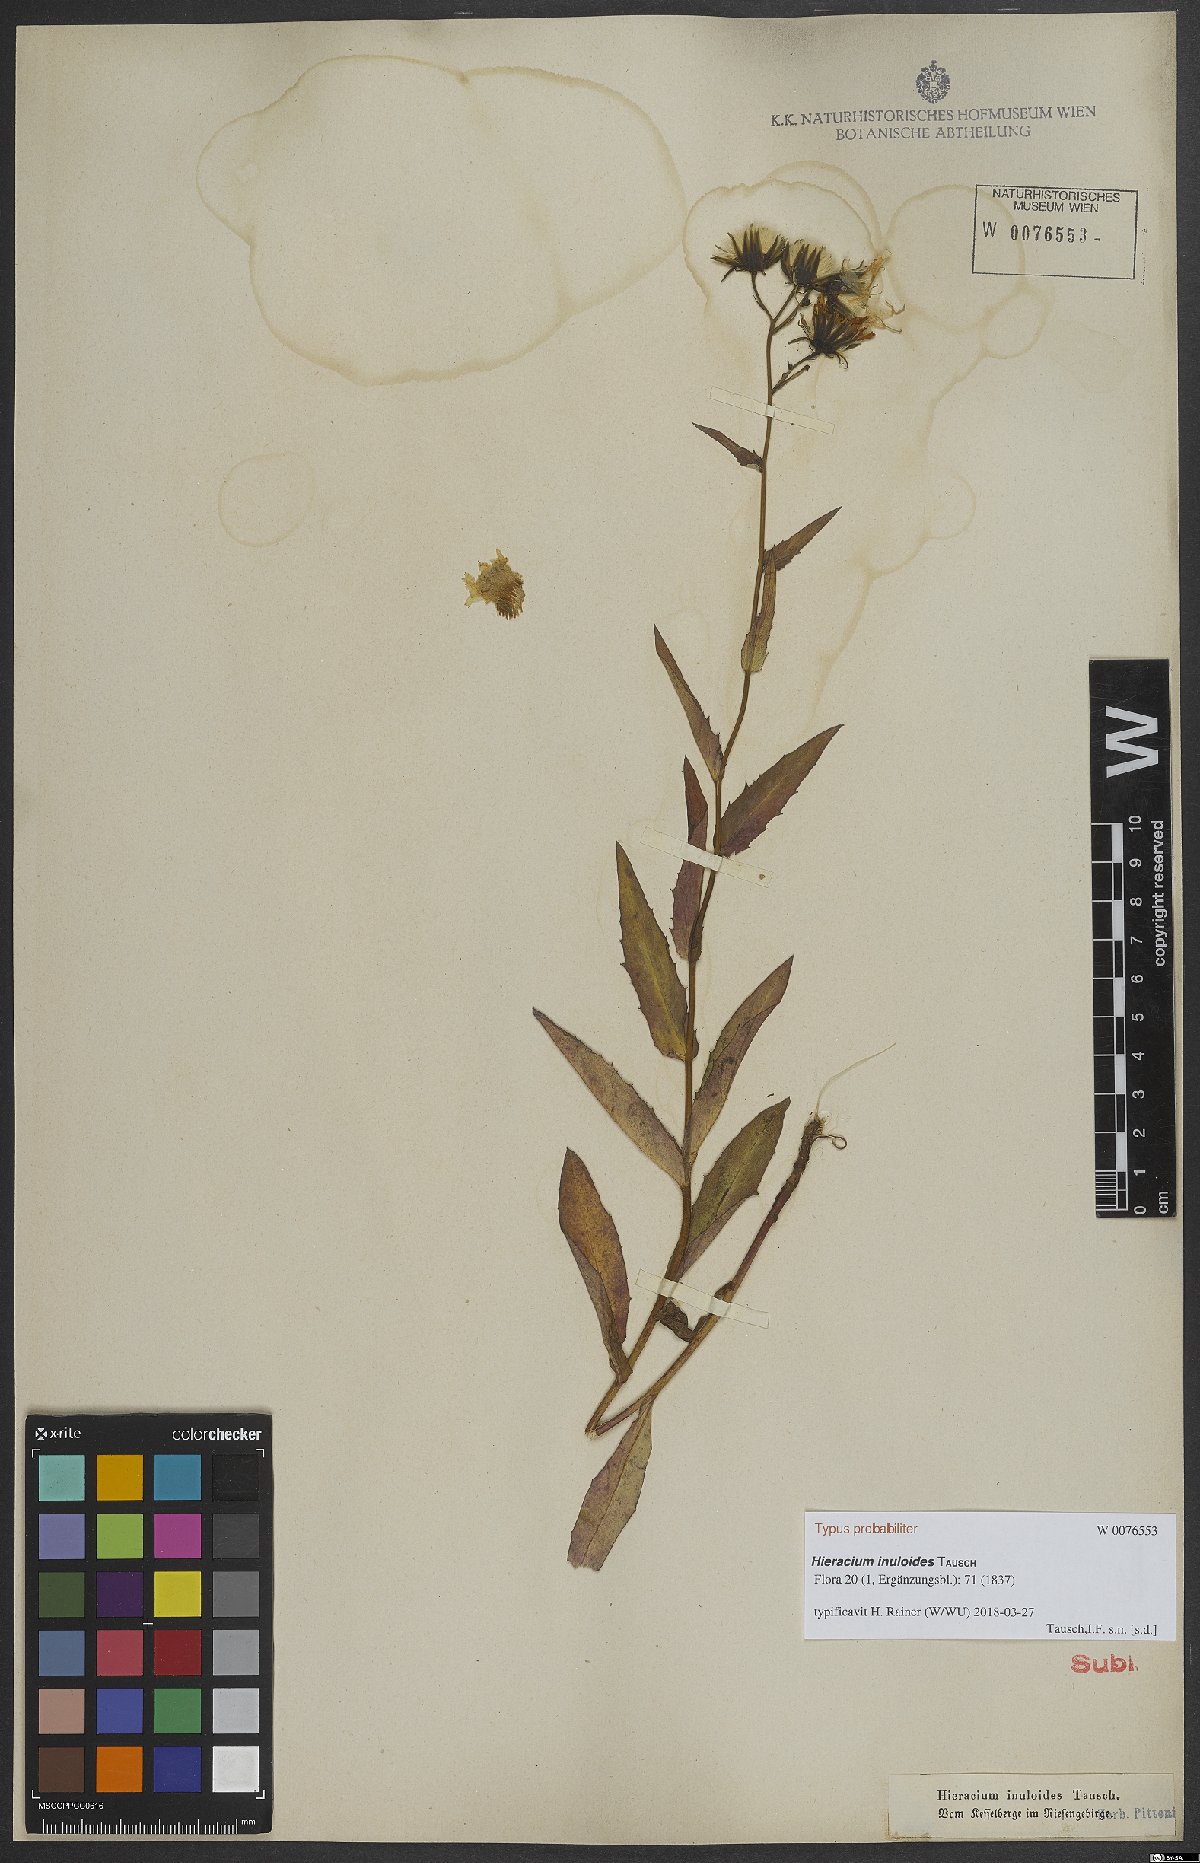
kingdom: Plantae
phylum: Tracheophyta
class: Magnoliopsida
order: Asterales
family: Asteraceae
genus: Hieracium
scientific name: Hieracium inuloides
